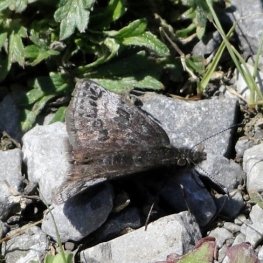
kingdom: Animalia
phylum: Arthropoda
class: Insecta
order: Lepidoptera
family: Hesperiidae
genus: Erynnis
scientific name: Erynnis icelus
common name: Dreamy Duskywing
